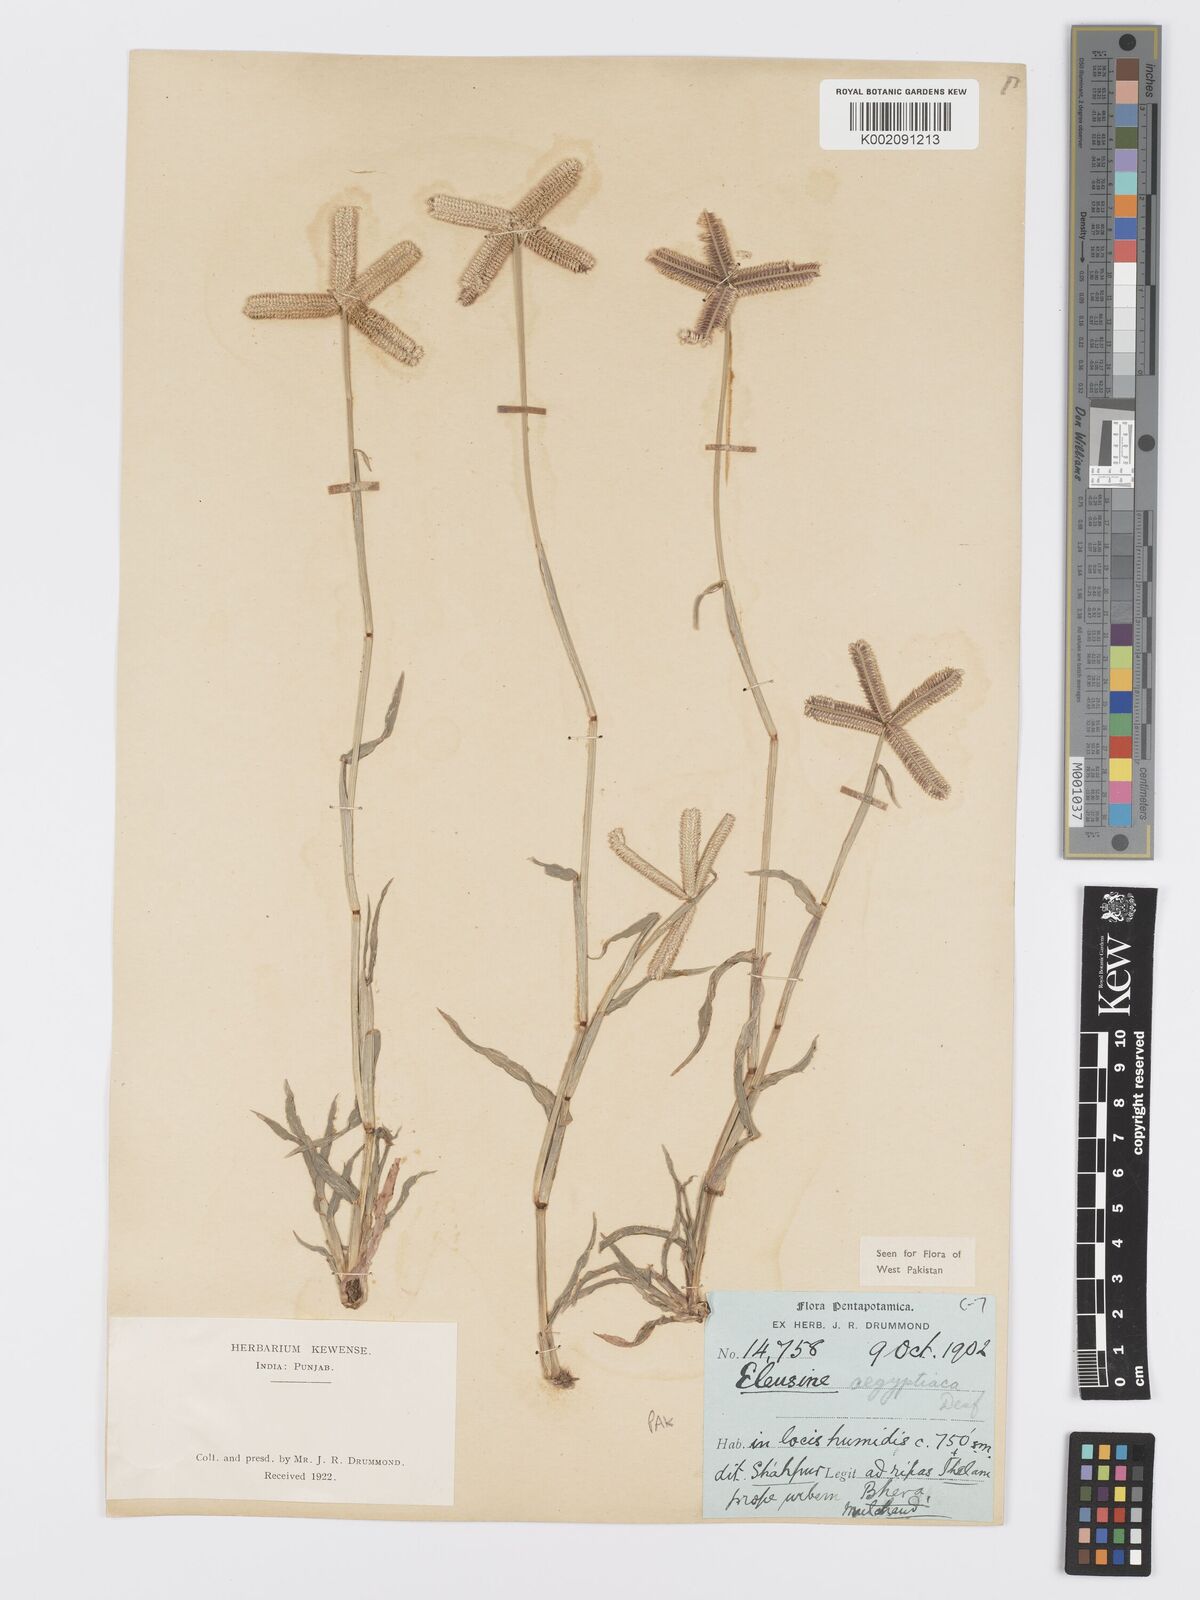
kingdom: Plantae
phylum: Tracheophyta
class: Liliopsida
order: Poales
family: Poaceae
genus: Dactyloctenium
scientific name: Dactyloctenium aegyptium
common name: Egyptian grass
